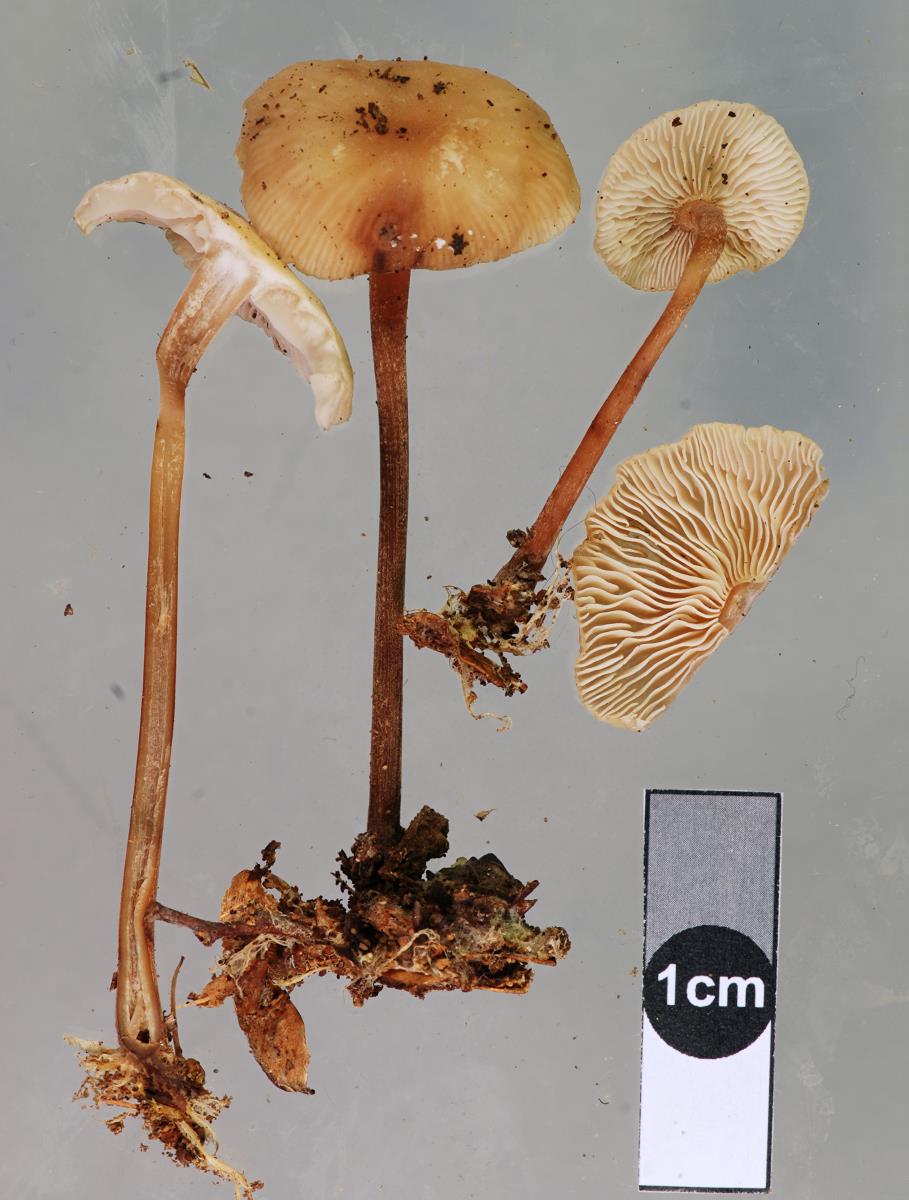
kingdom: Fungi
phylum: Basidiomycota
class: Agaricomycetes
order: Agaricales
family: Omphalotaceae
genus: Collybiopsis
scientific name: Collybiopsis rimutaka
